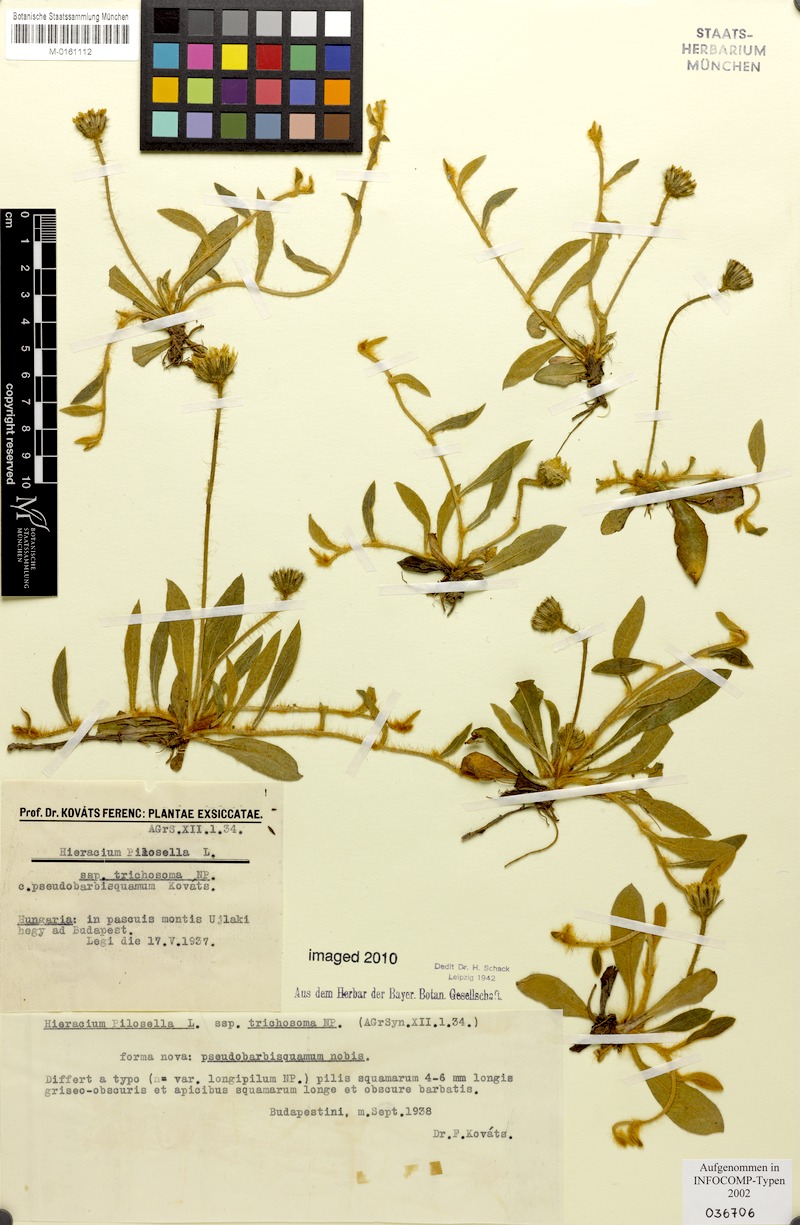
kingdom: Plantae
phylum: Tracheophyta
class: Magnoliopsida
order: Asterales
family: Asteraceae
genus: Pilosella
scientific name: Pilosella officinarum
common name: Mouse-ear hawkweed
